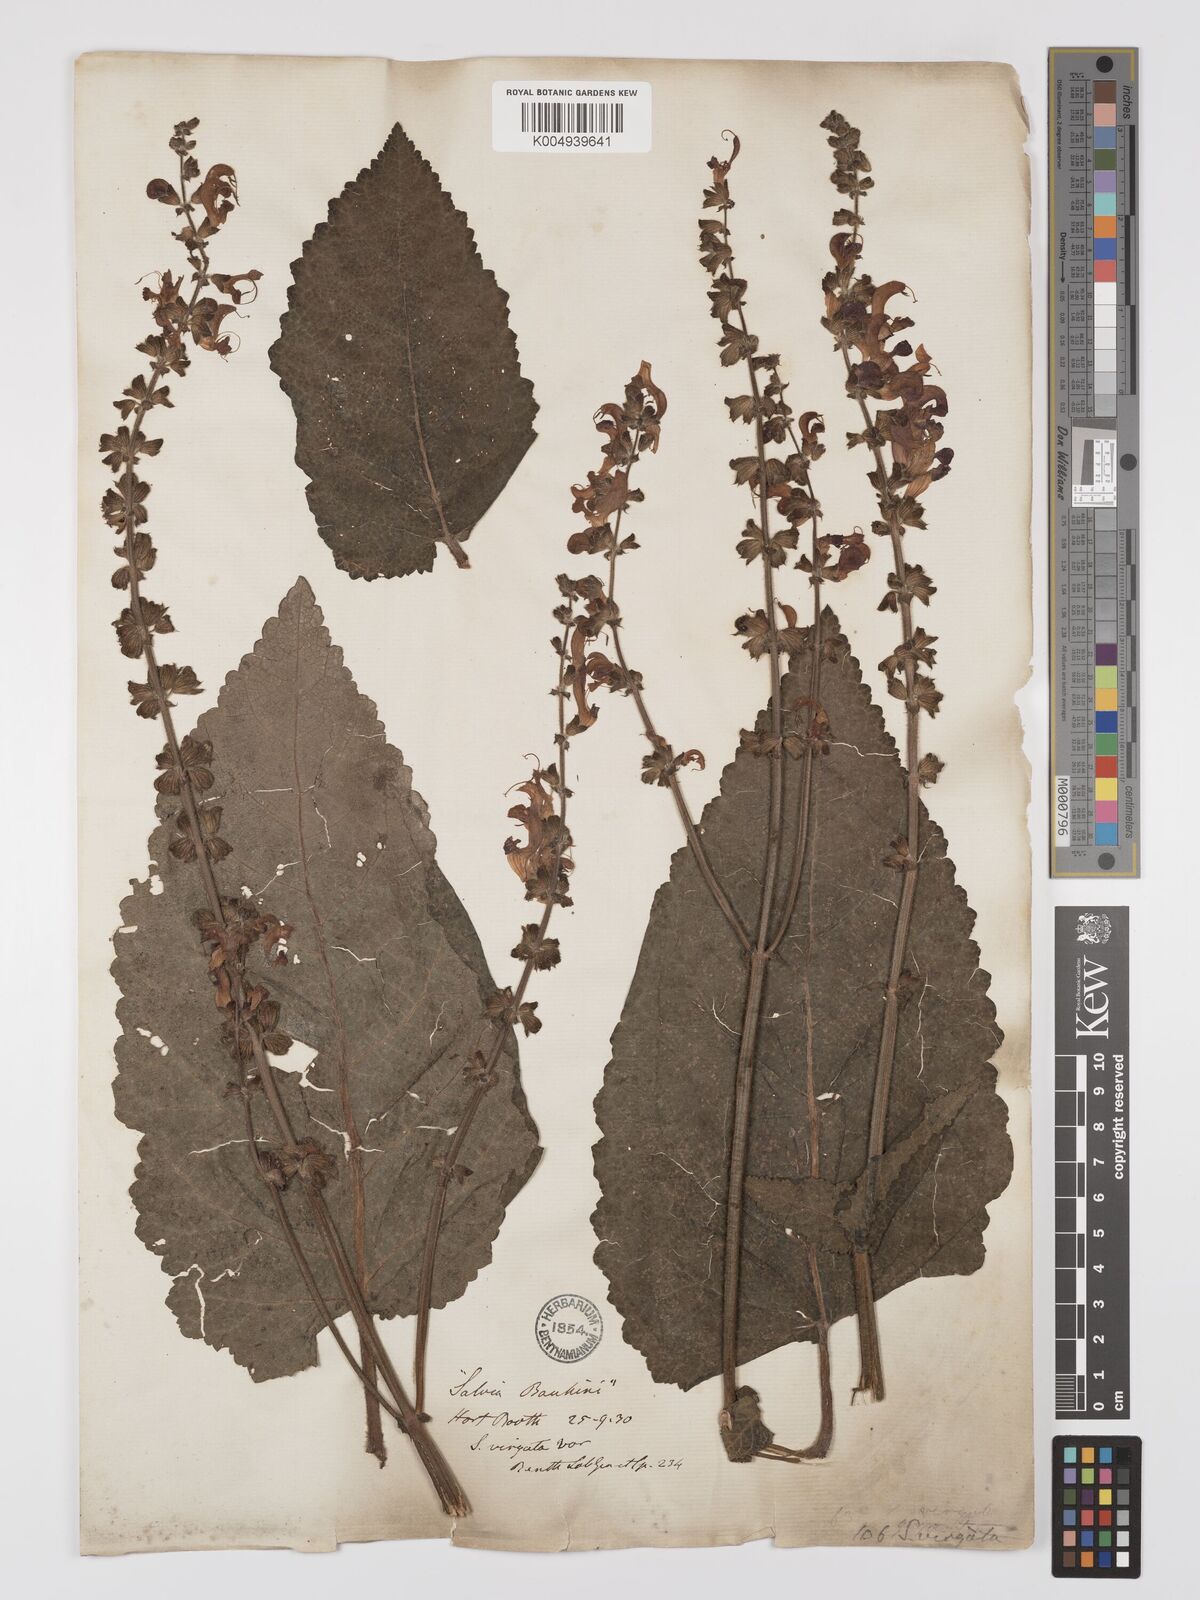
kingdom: Plantae
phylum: Tracheophyta
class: Magnoliopsida
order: Lamiales
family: Lamiaceae
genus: Salvia
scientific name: Salvia
